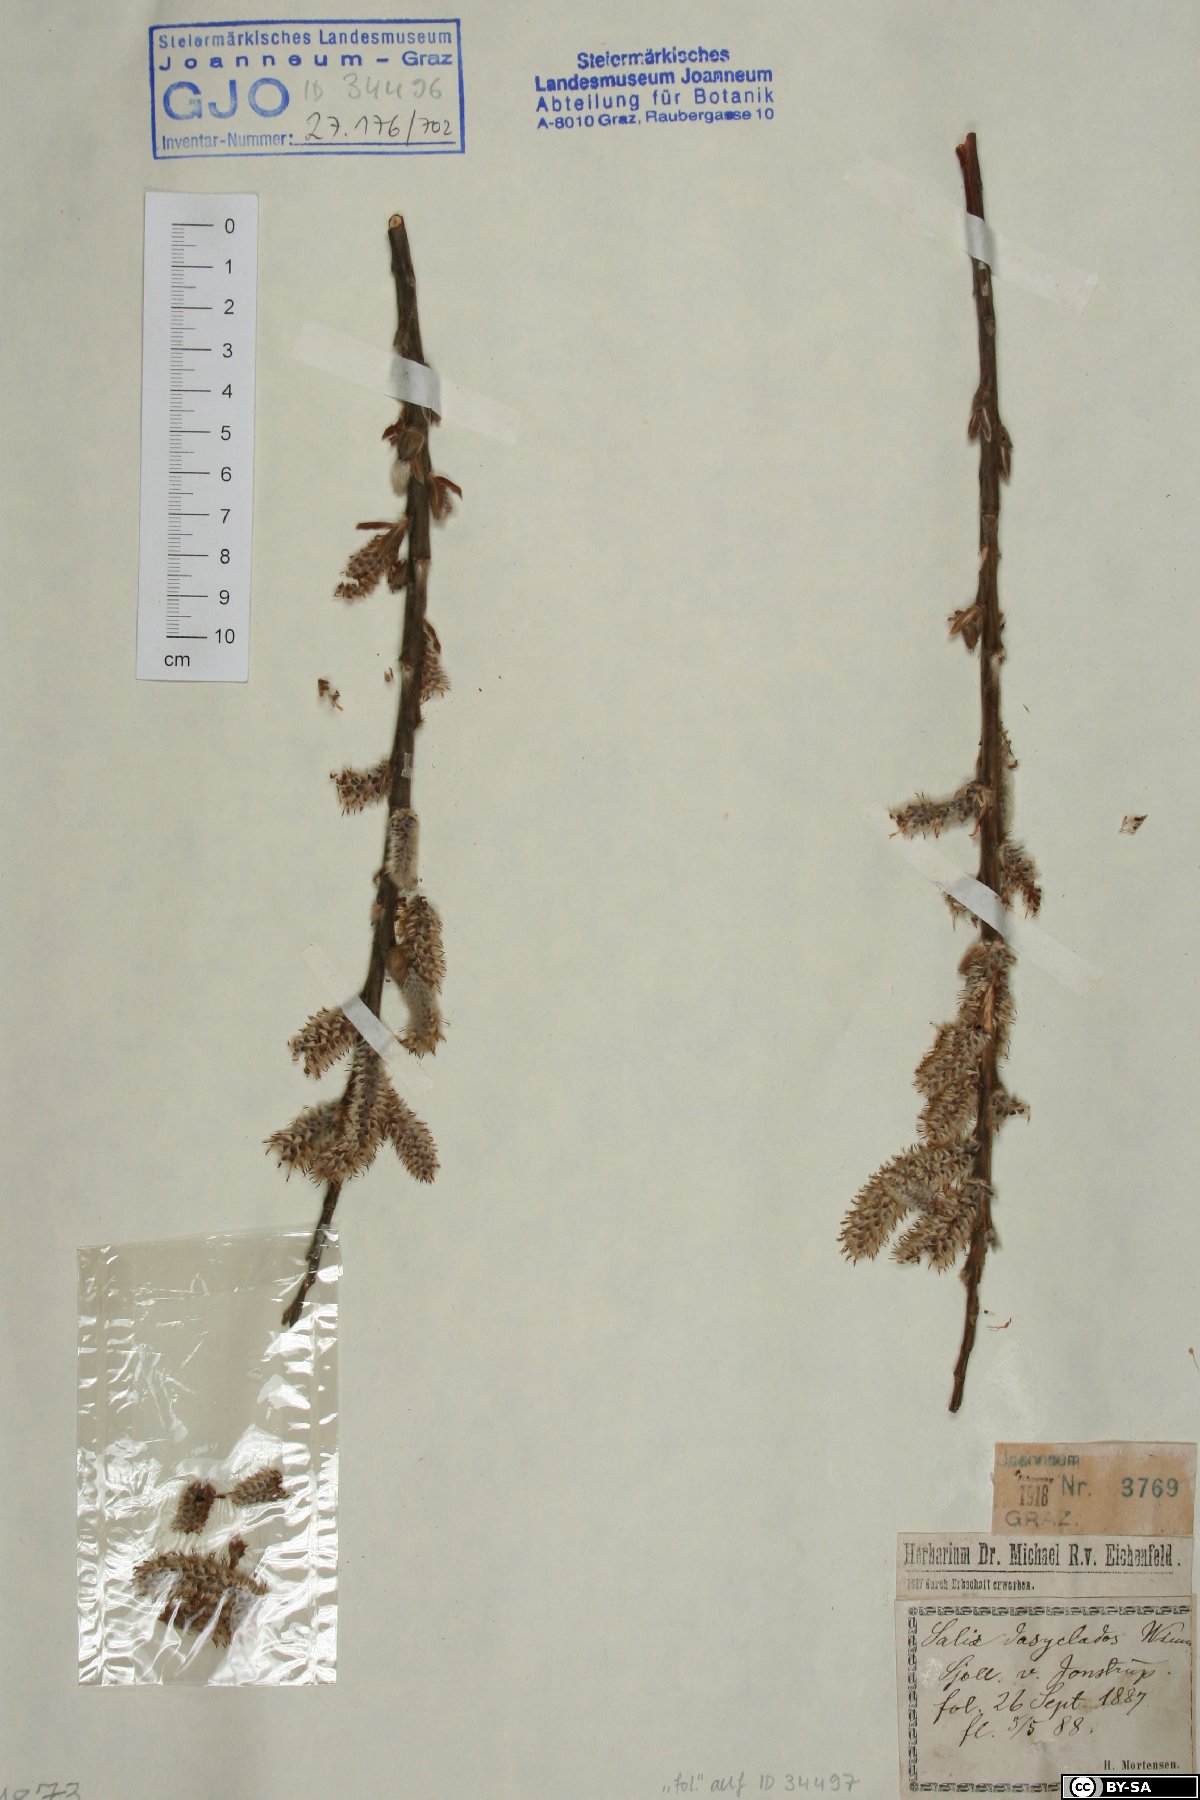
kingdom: Plantae
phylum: Tracheophyta
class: Magnoliopsida
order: Malpighiales
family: Salicaceae
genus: Salix
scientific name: Salix gmelinii
